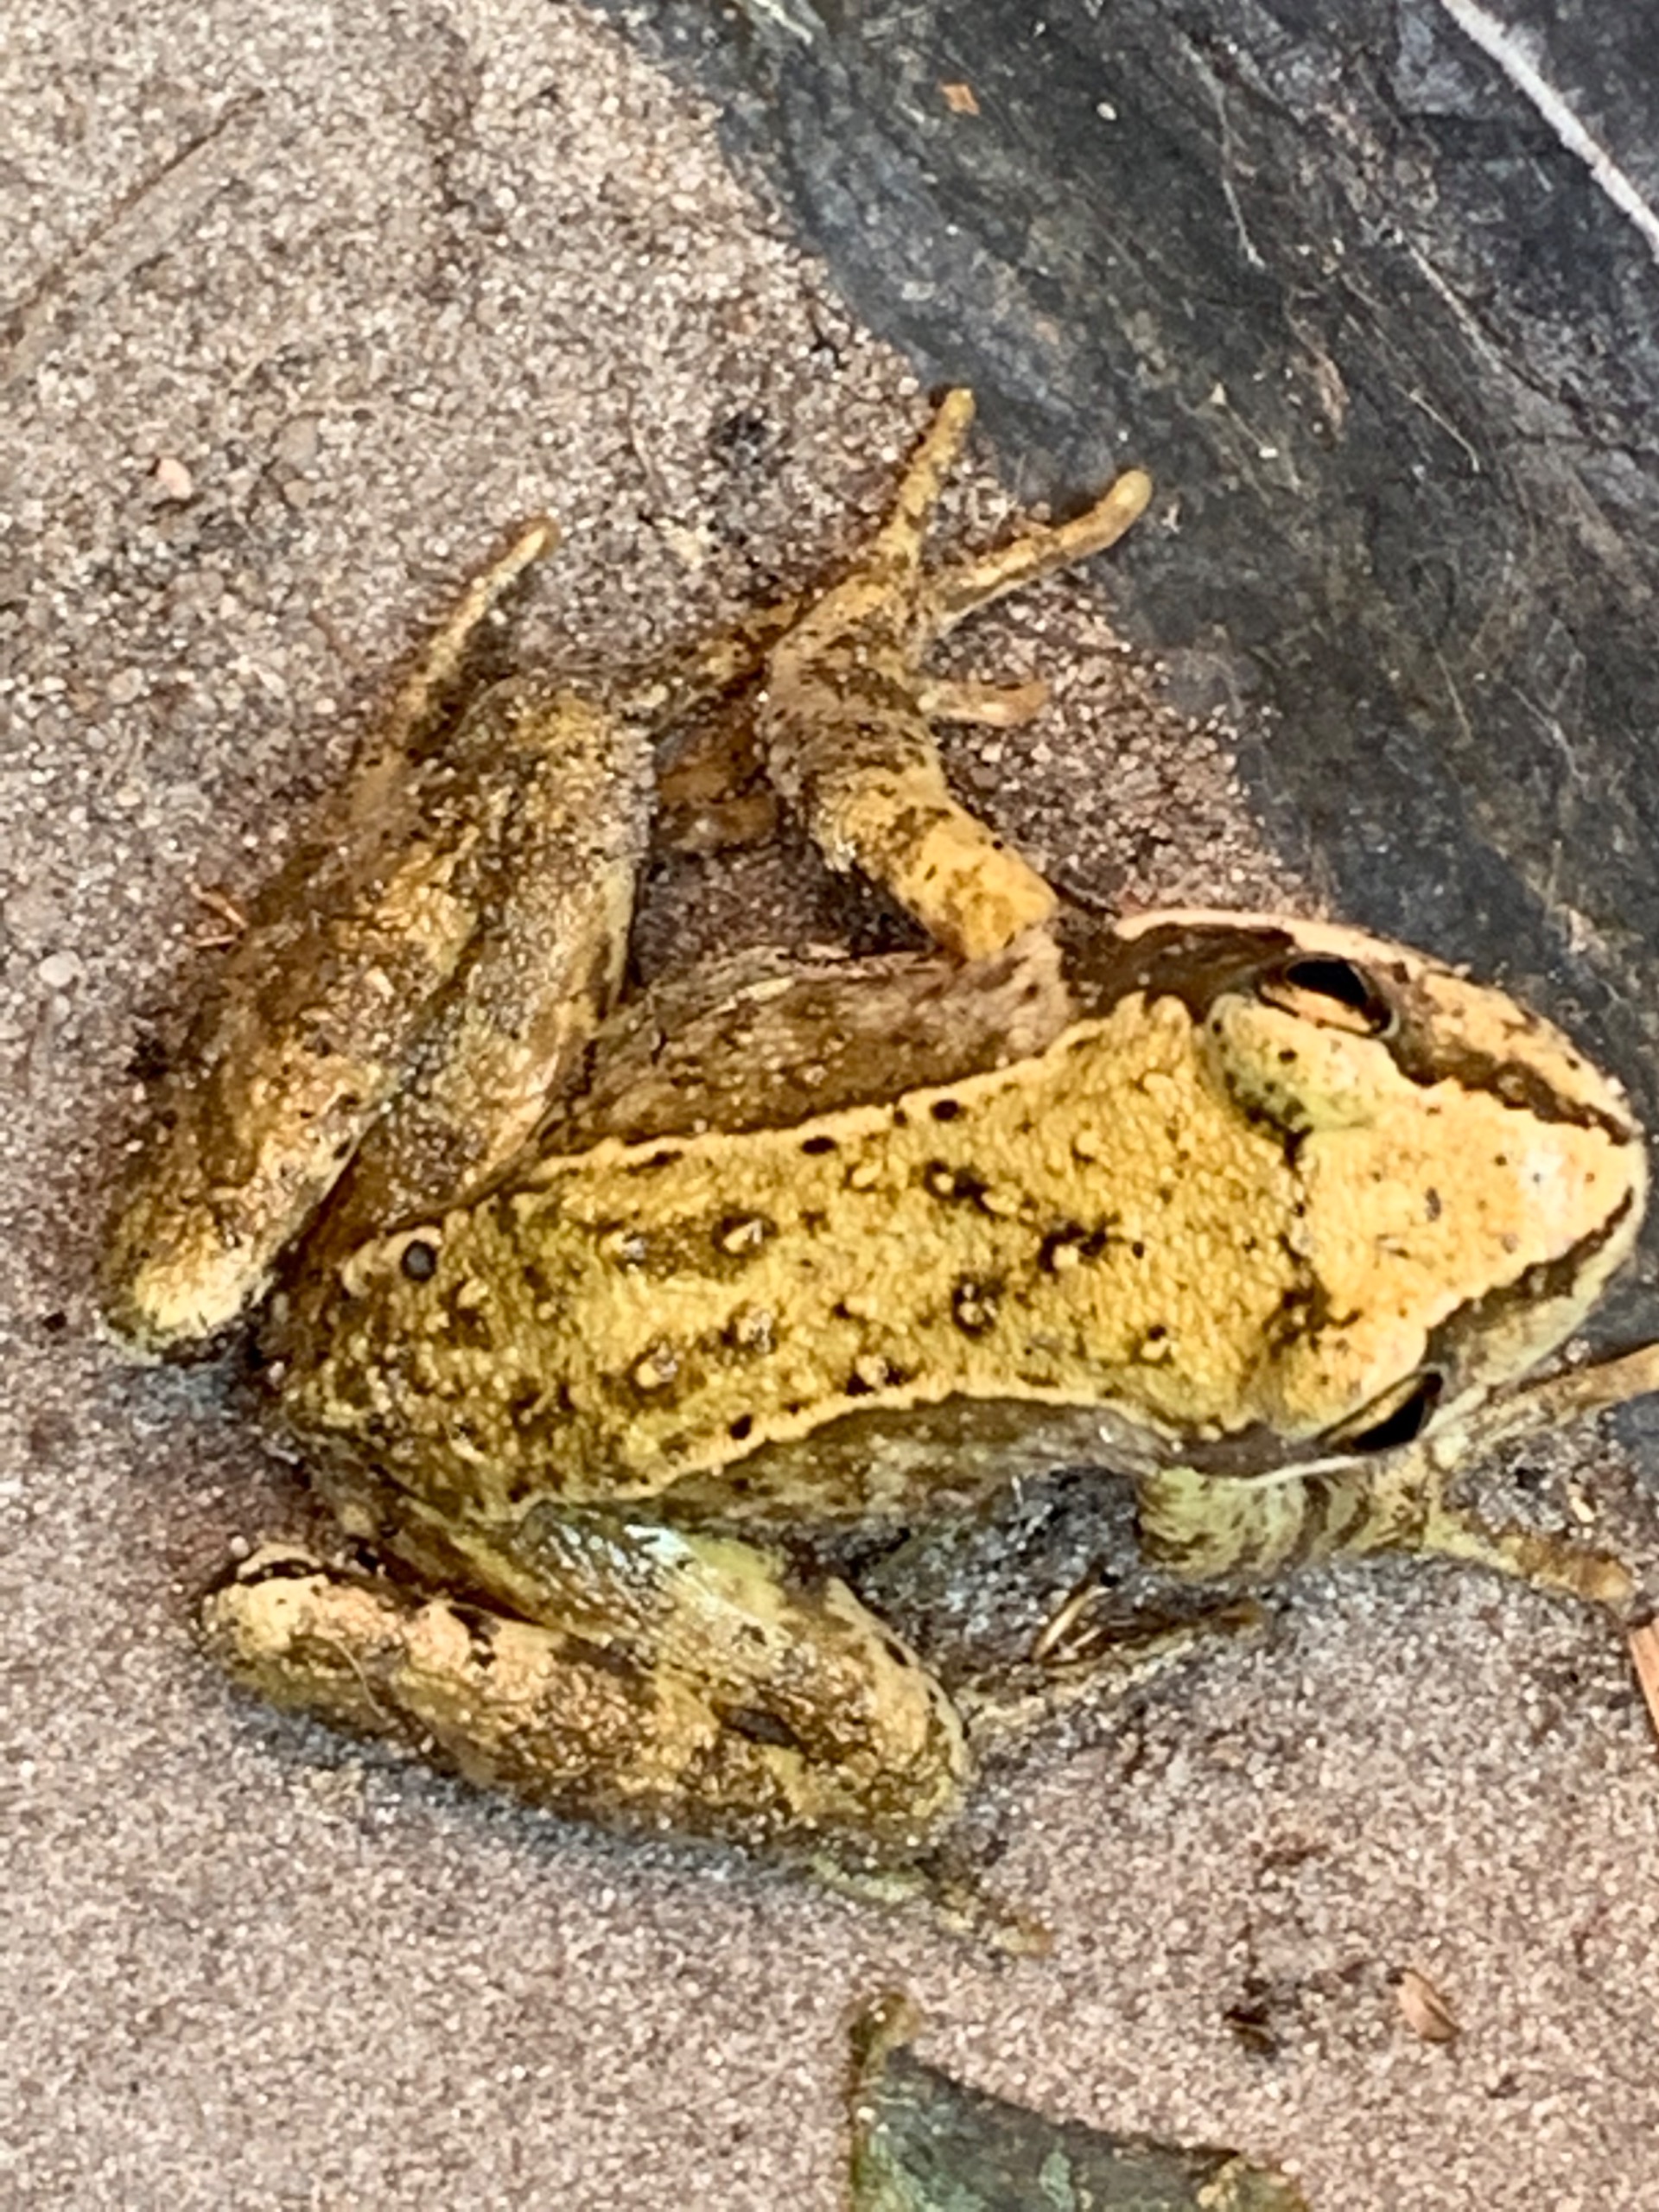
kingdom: Animalia
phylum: Chordata
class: Amphibia
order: Anura
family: Ranidae
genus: Rana
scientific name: Rana temporaria
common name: Butsnudet frø
